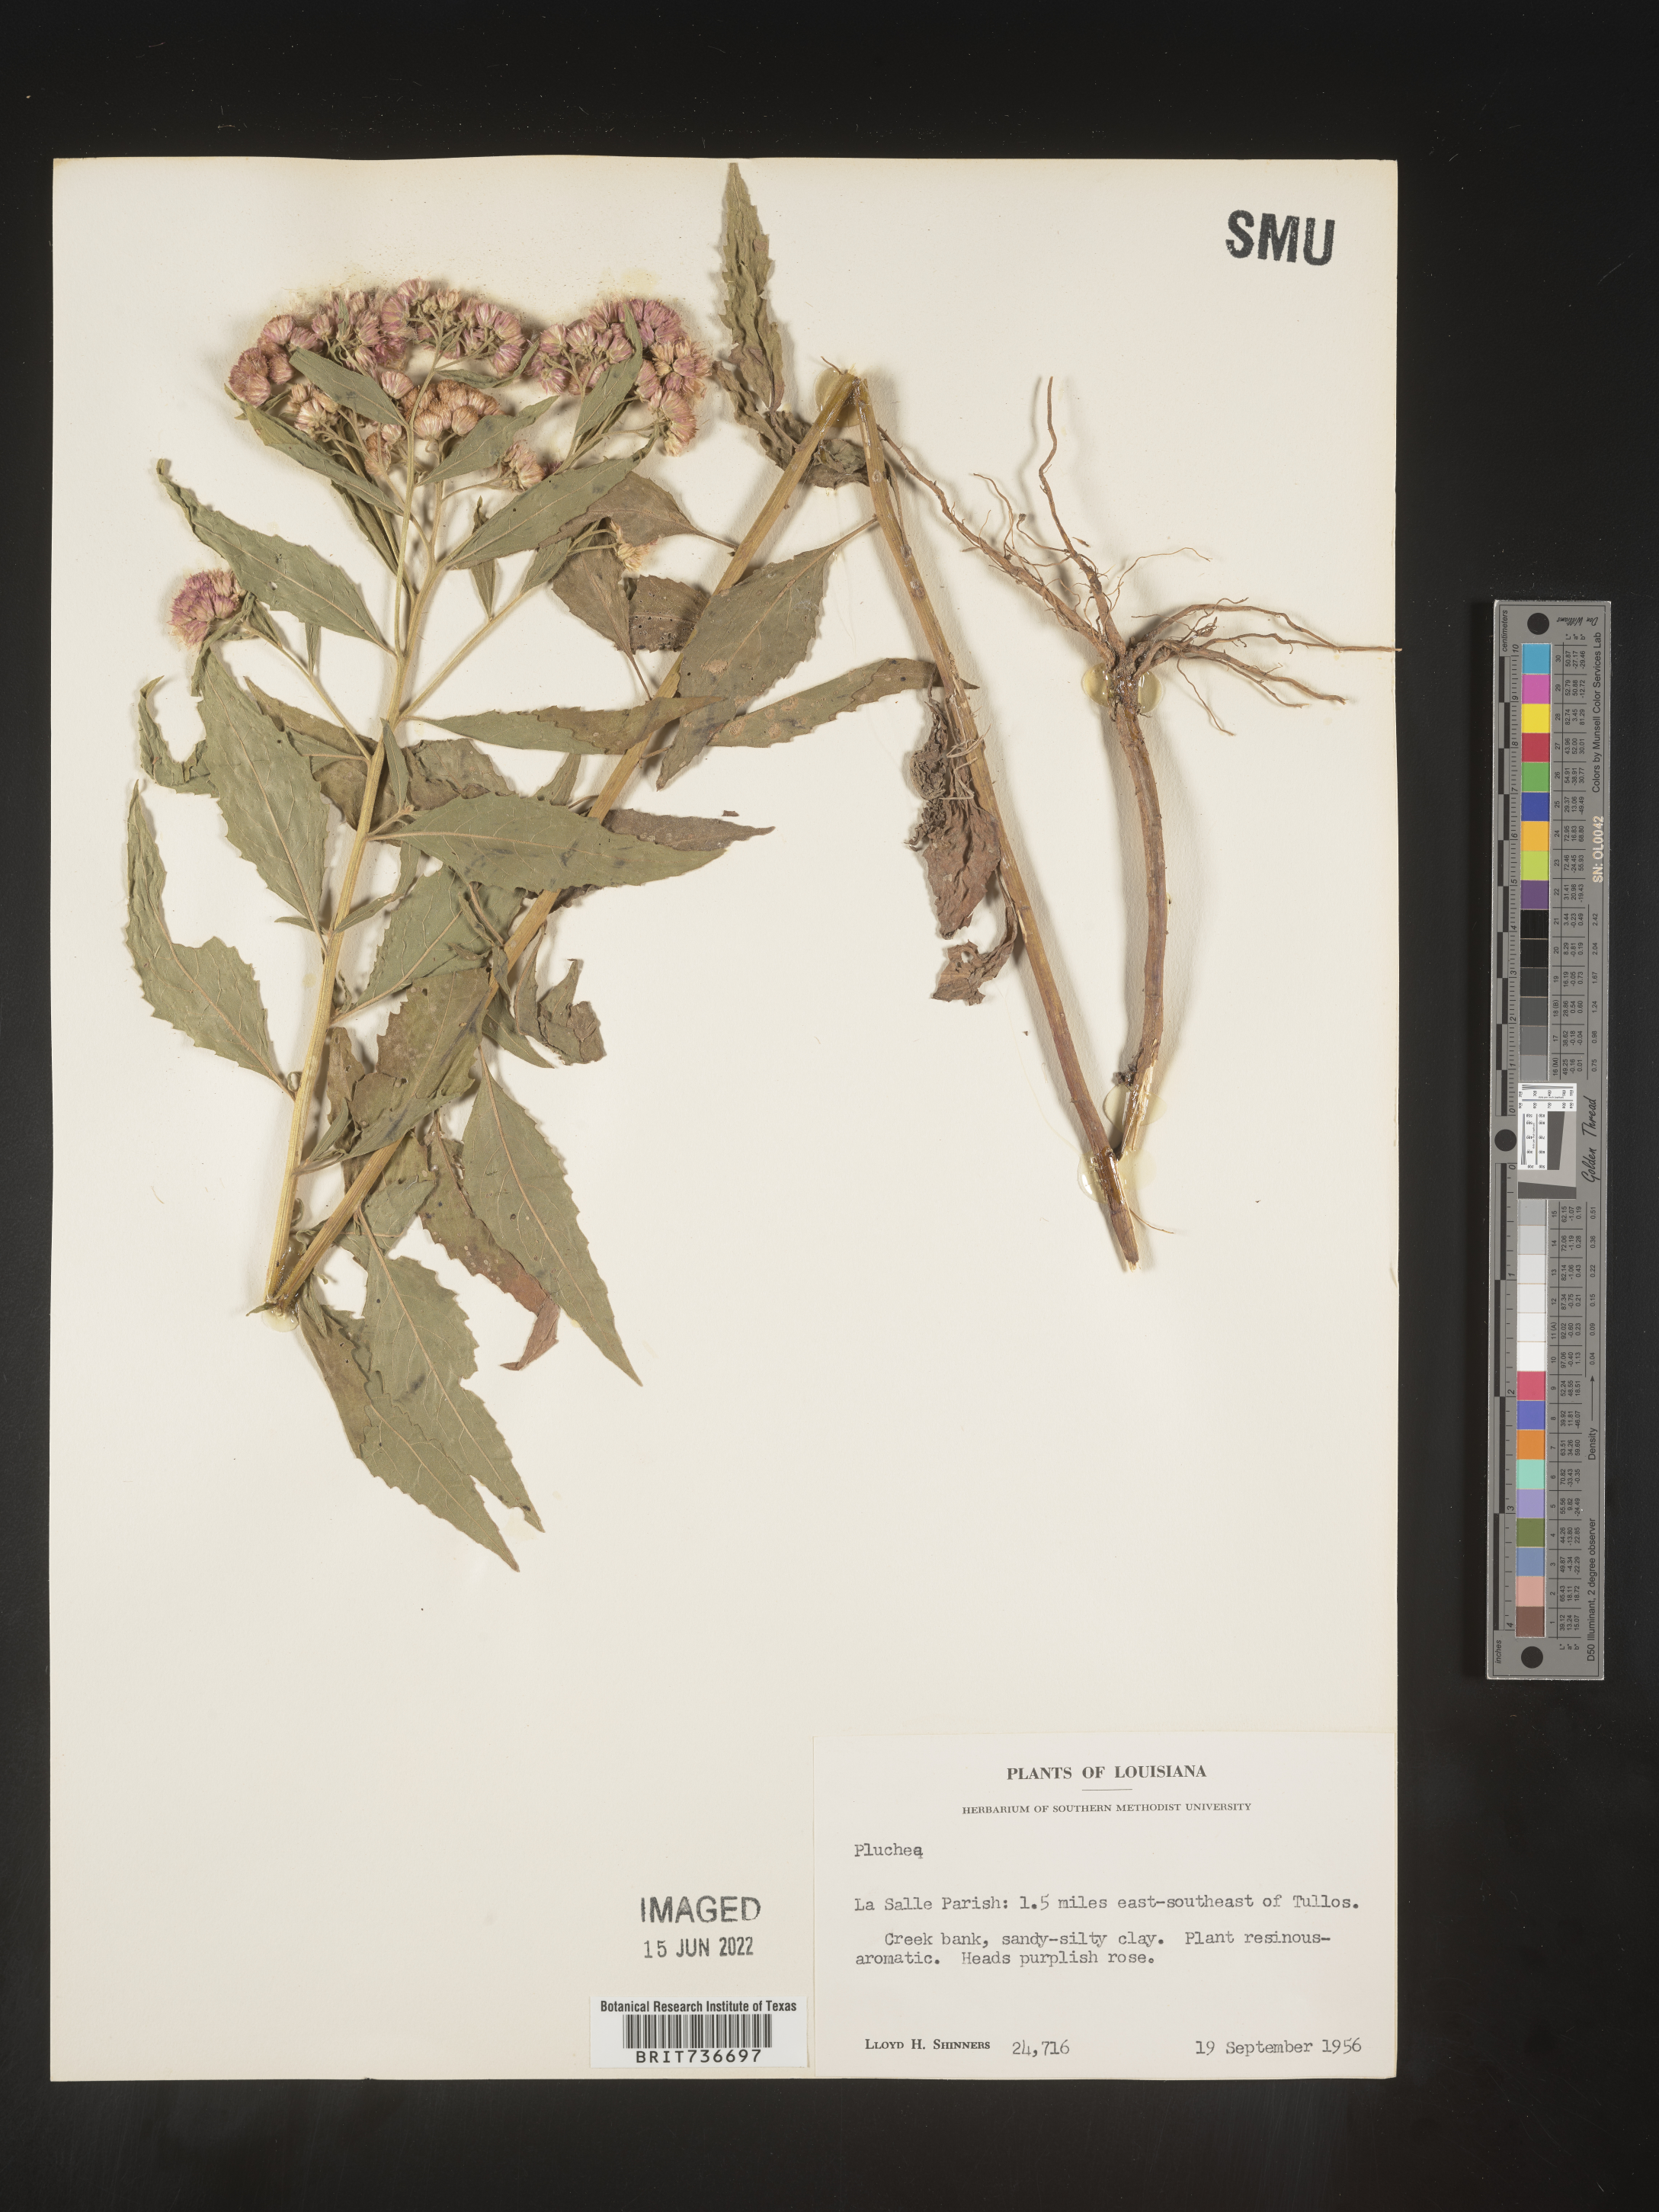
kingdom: Plantae
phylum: Tracheophyta
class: Magnoliopsida
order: Asterales
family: Asteraceae
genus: Pluchea
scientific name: Pluchea odorata
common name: Saltmarsh fleabane
